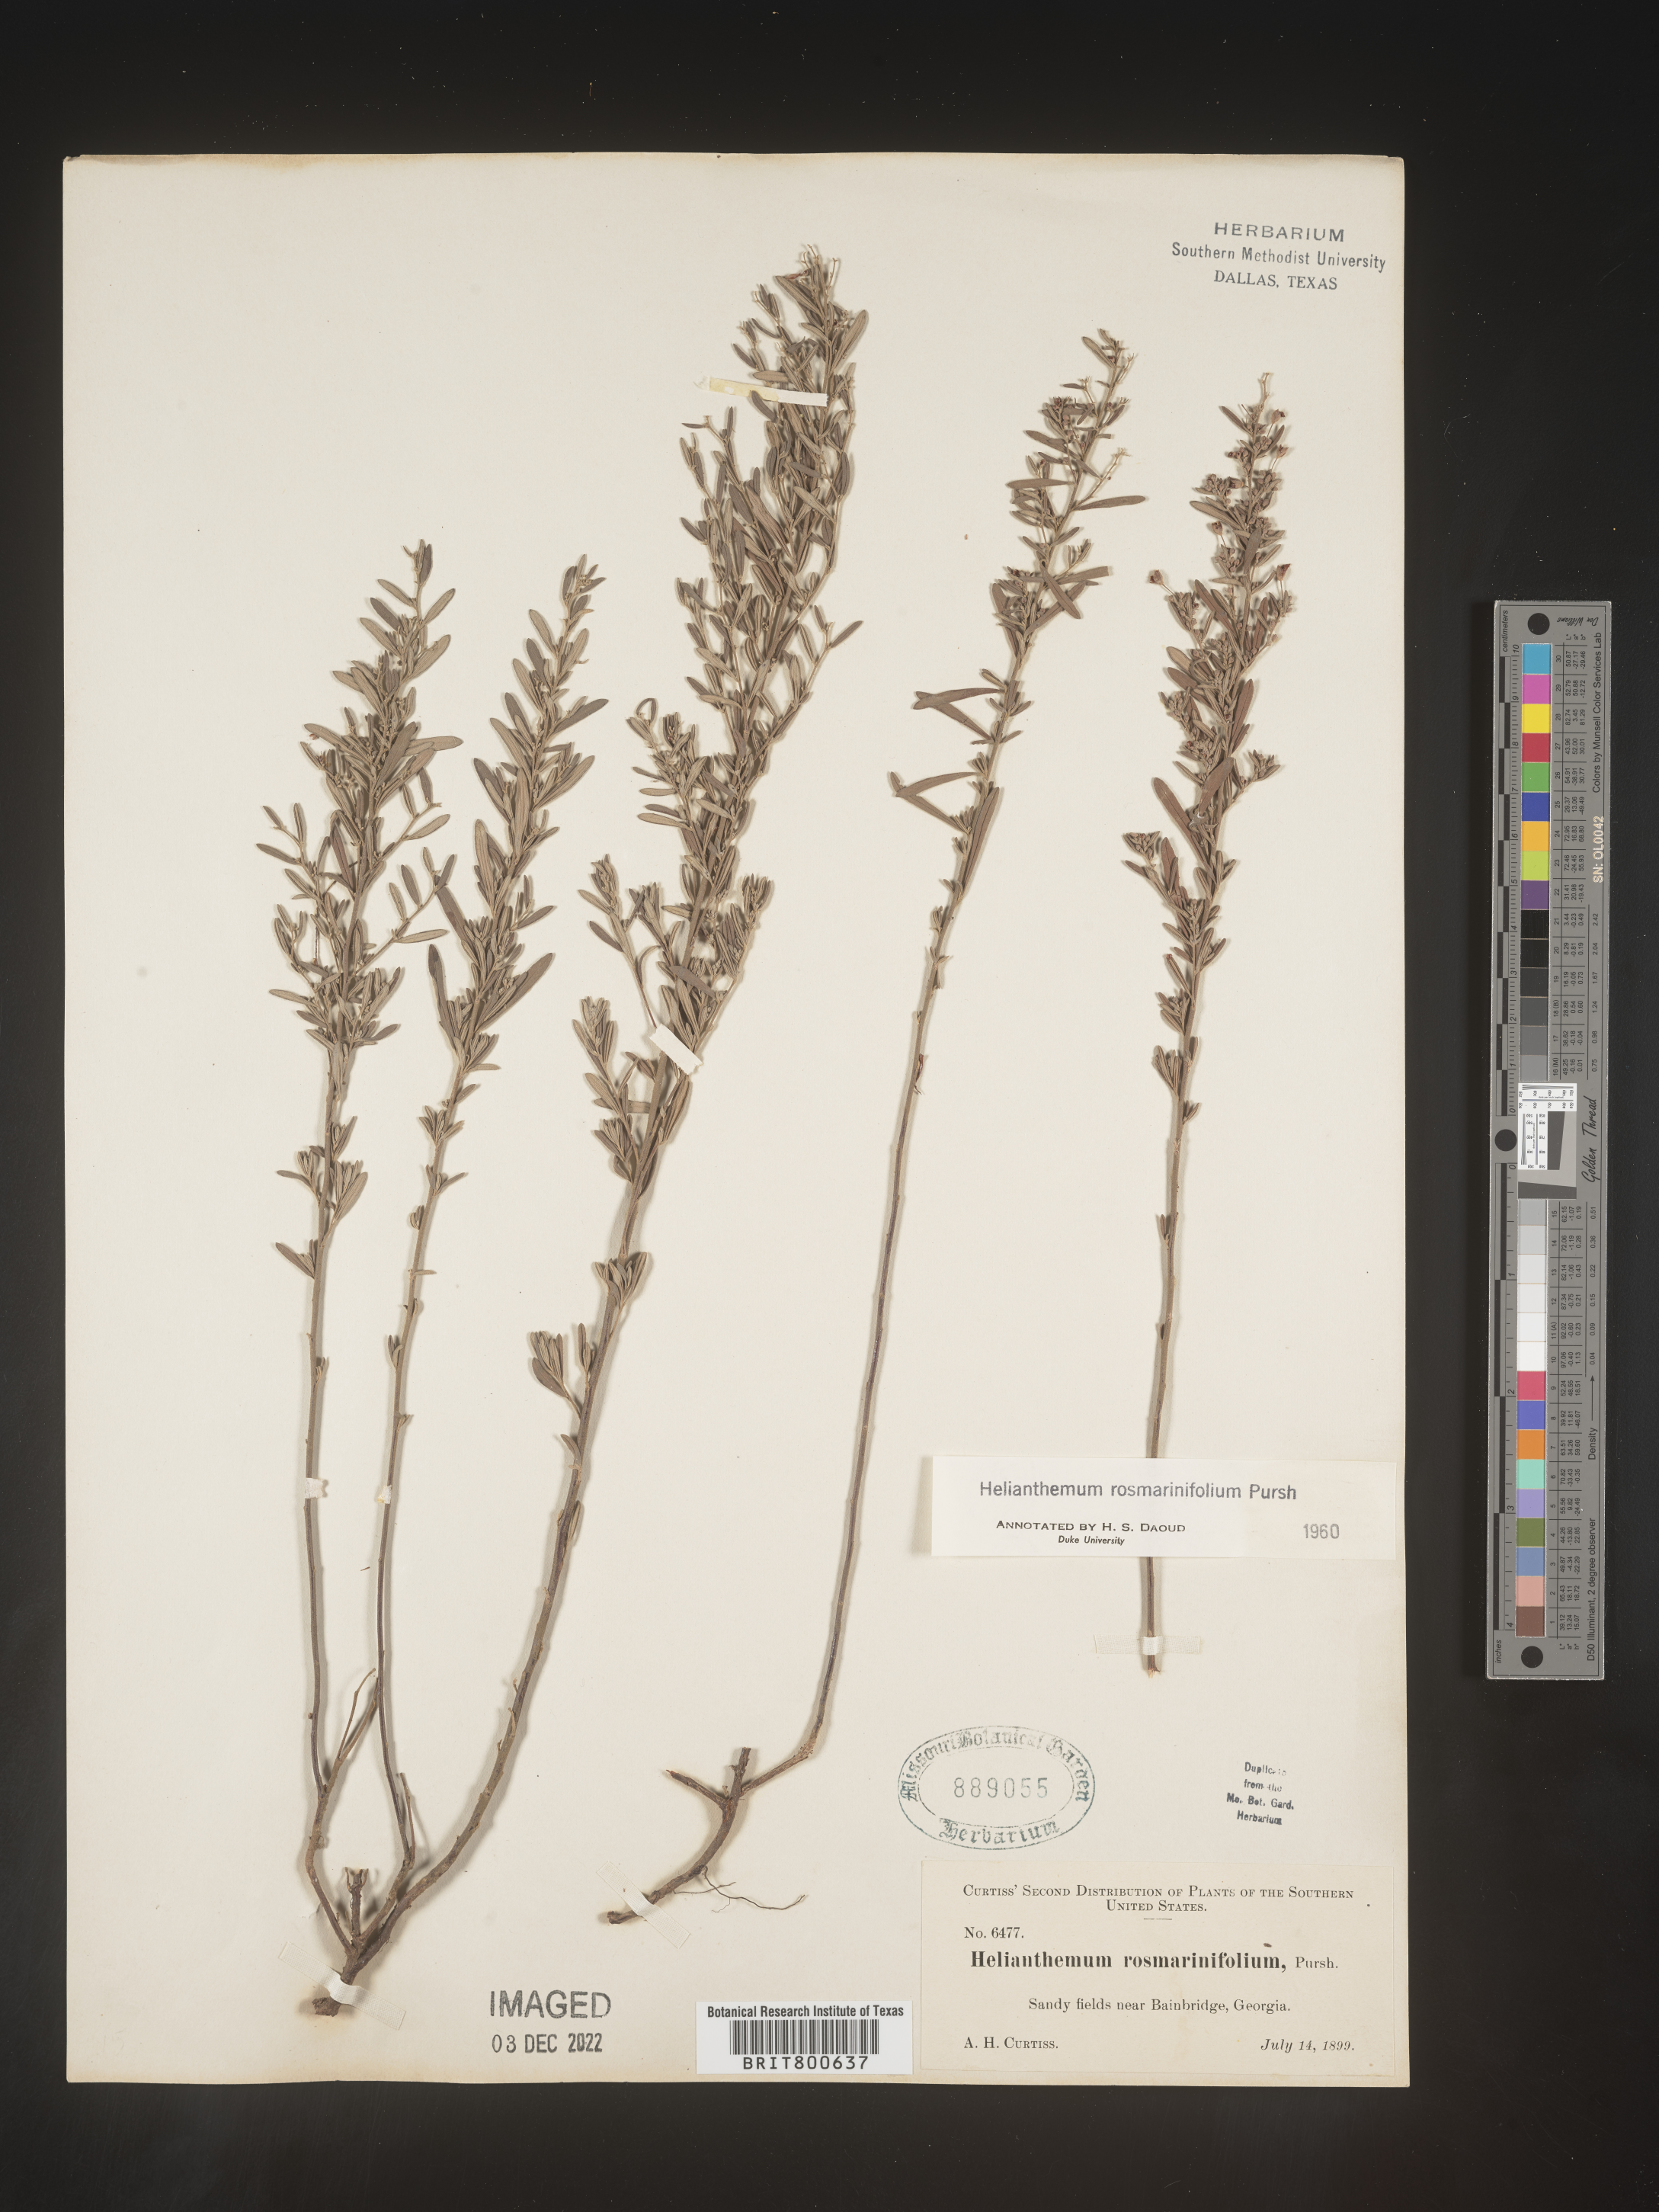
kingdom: Plantae
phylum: Tracheophyta
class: Magnoliopsida
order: Malvales
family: Cistaceae
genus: Helianthemum
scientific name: Helianthemum
